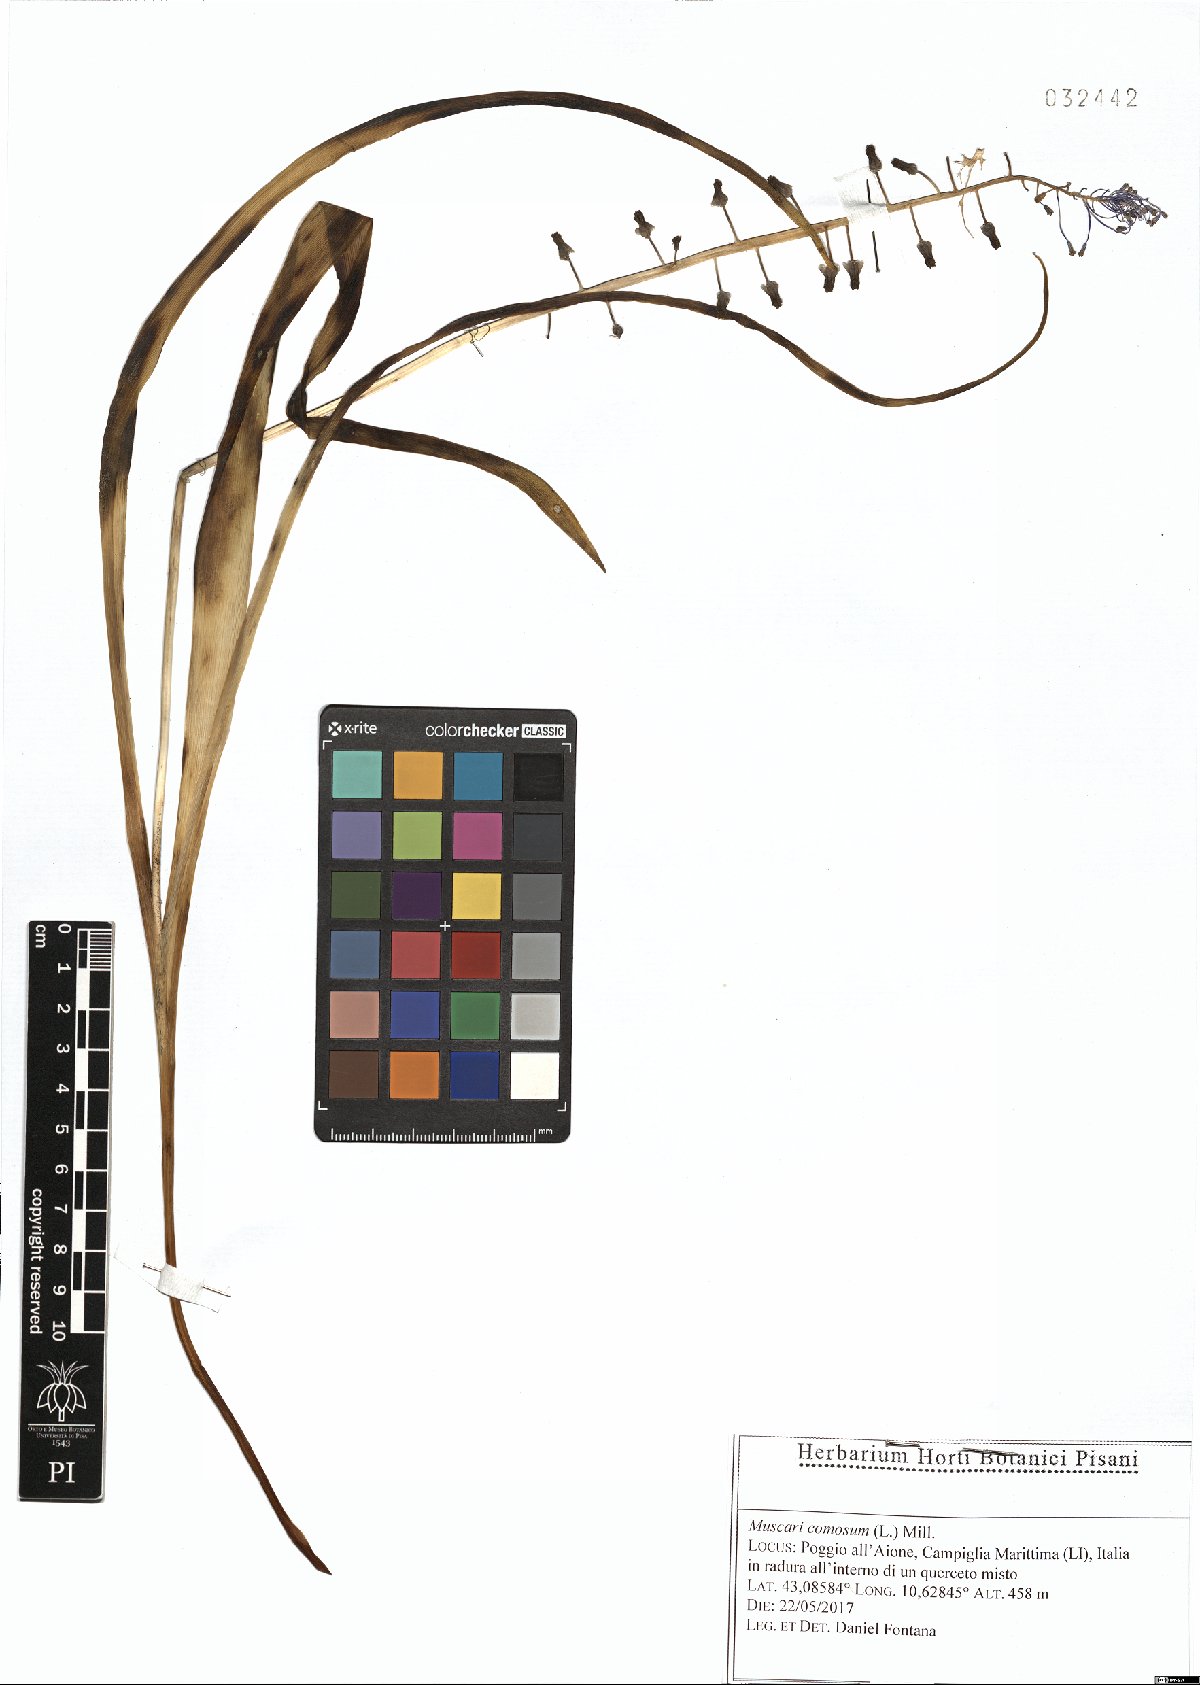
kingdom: Plantae
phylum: Tracheophyta
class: Liliopsida
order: Asparagales
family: Asparagaceae
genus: Muscari
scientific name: Muscari comosum
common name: Tassel hyacinth
